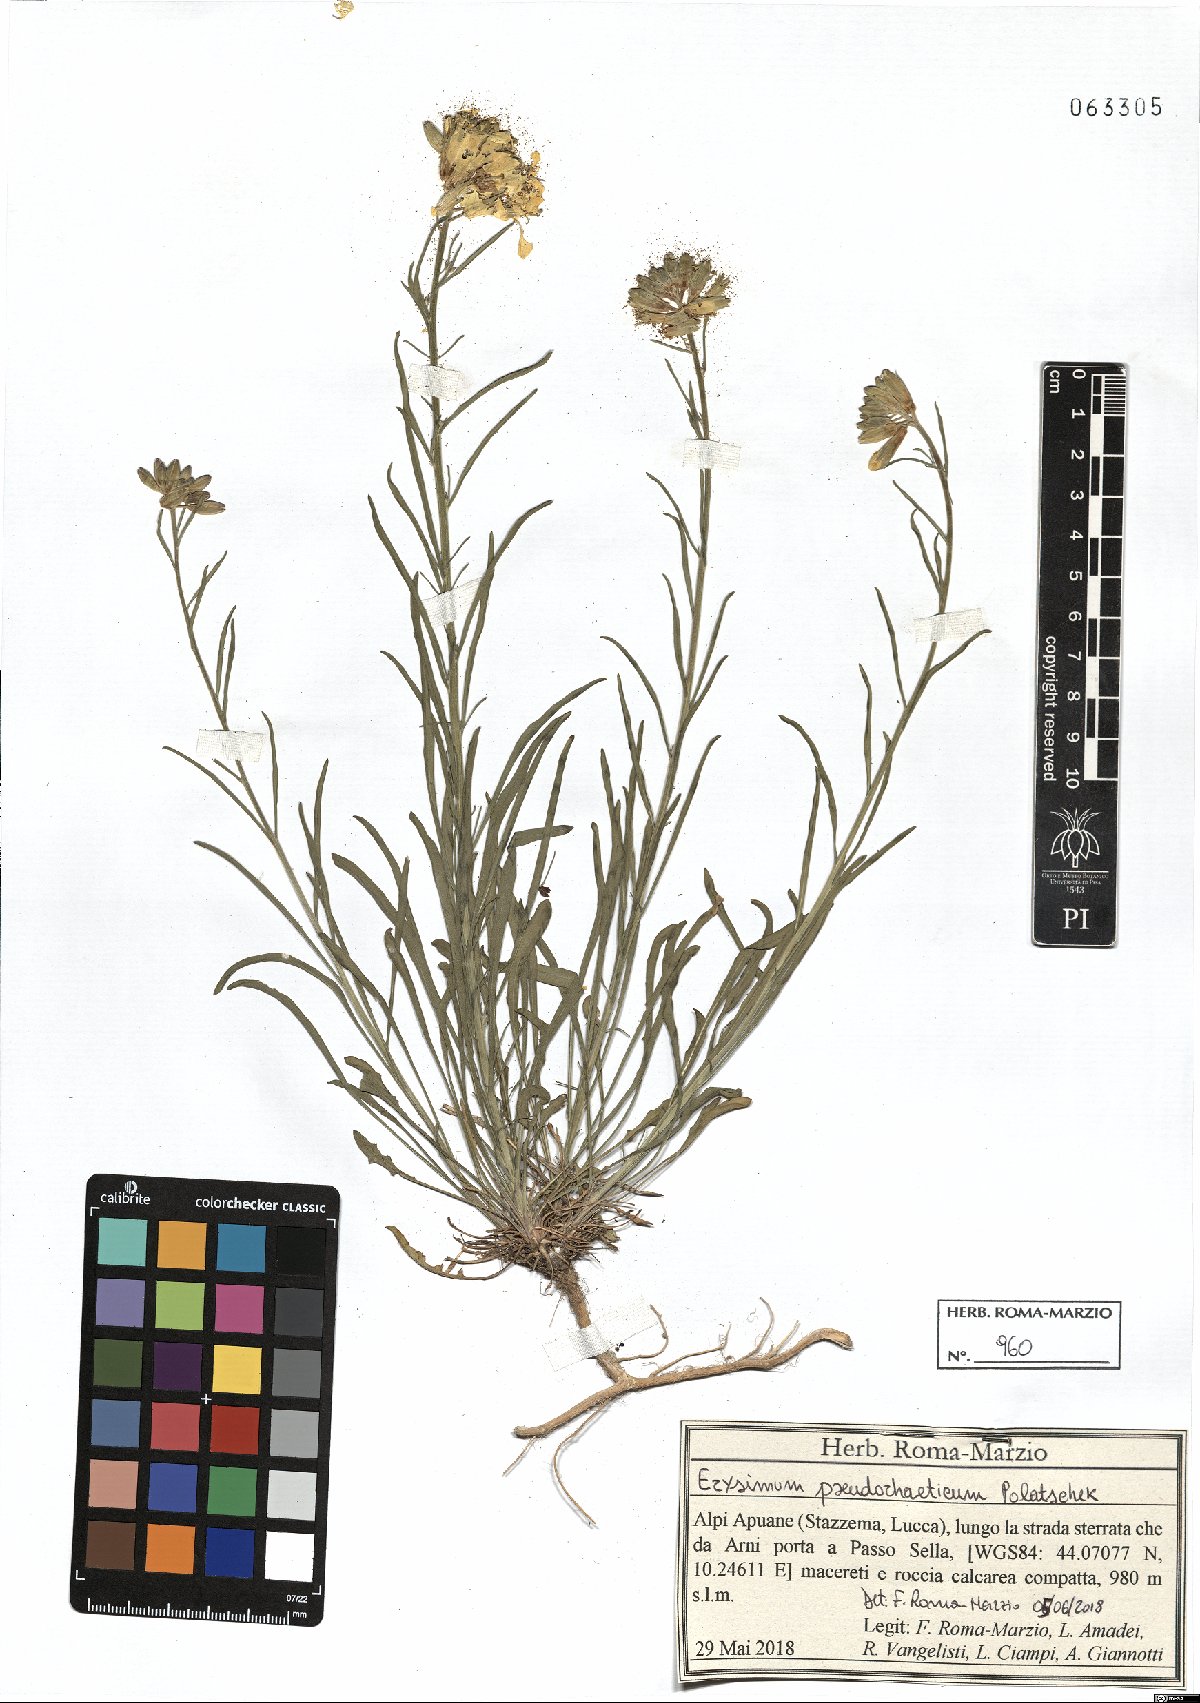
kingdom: Plantae
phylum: Tracheophyta
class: Magnoliopsida
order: Brassicales
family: Brassicaceae
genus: Erysimum
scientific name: Erysimum pseudorhaeticum
